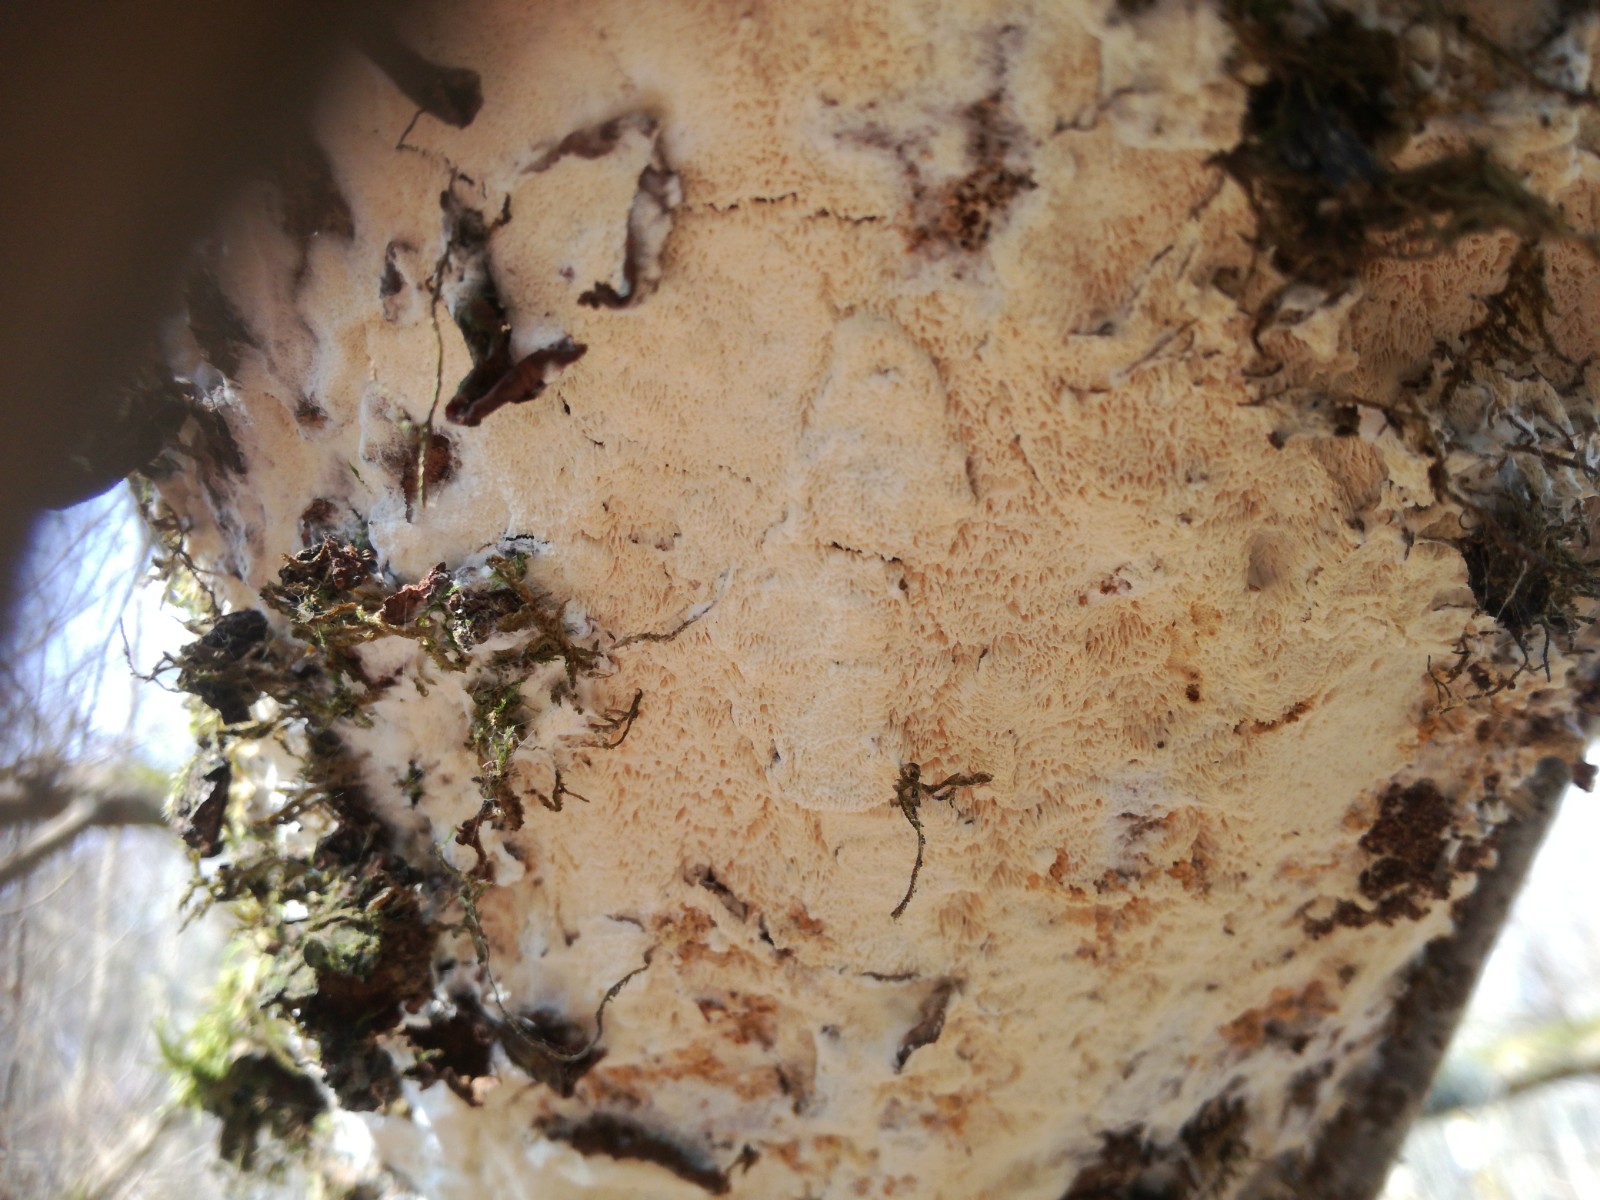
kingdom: Fungi
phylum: Basidiomycota
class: Agaricomycetes
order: Hymenochaetales
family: Schizoporaceae
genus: Xylodon
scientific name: Xylodon subtropicus
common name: labyrint-tandsvamp
